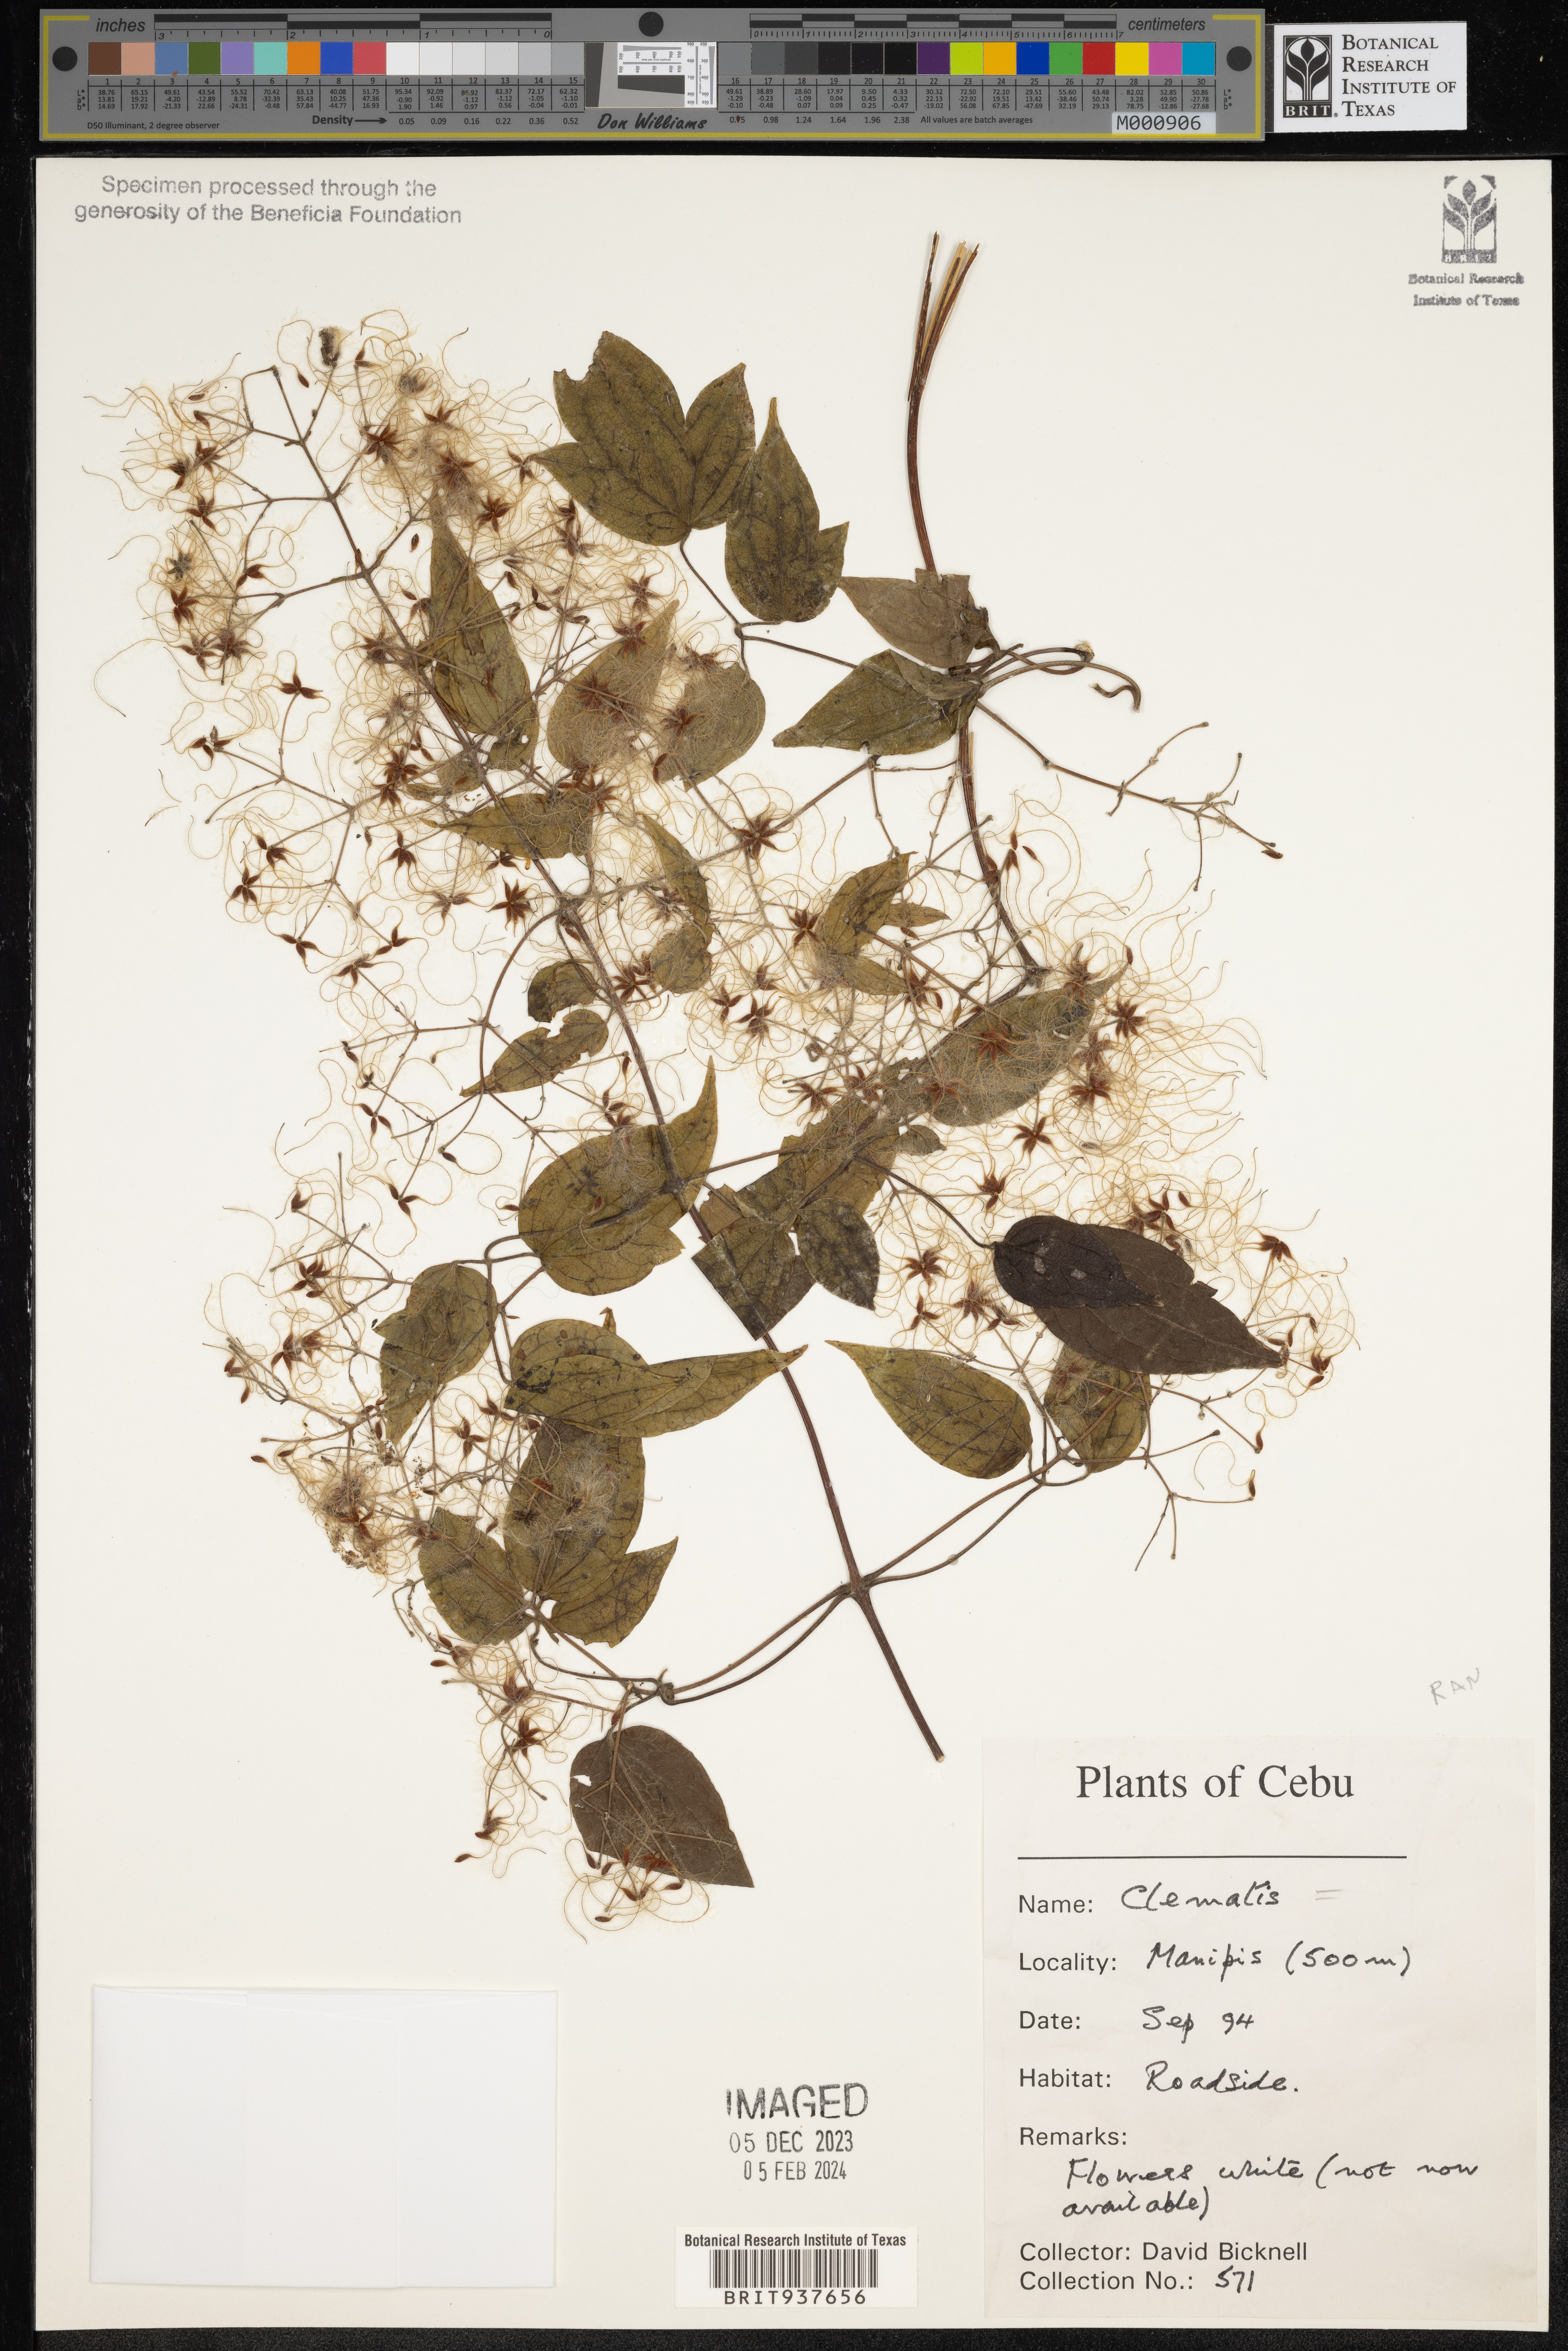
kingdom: Plantae
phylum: Tracheophyta
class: Magnoliopsida
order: Ranunculales
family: Ranunculaceae
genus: Clematis
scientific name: Clematis
